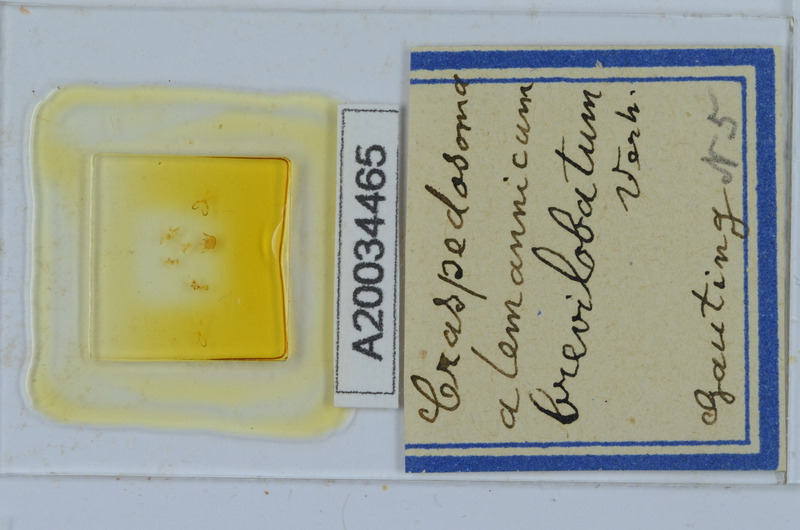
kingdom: Animalia
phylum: Arthropoda
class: Diplopoda
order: Chordeumatida
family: Craspedosomatidae
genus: Craspedosoma
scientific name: Craspedosoma alemannicum
